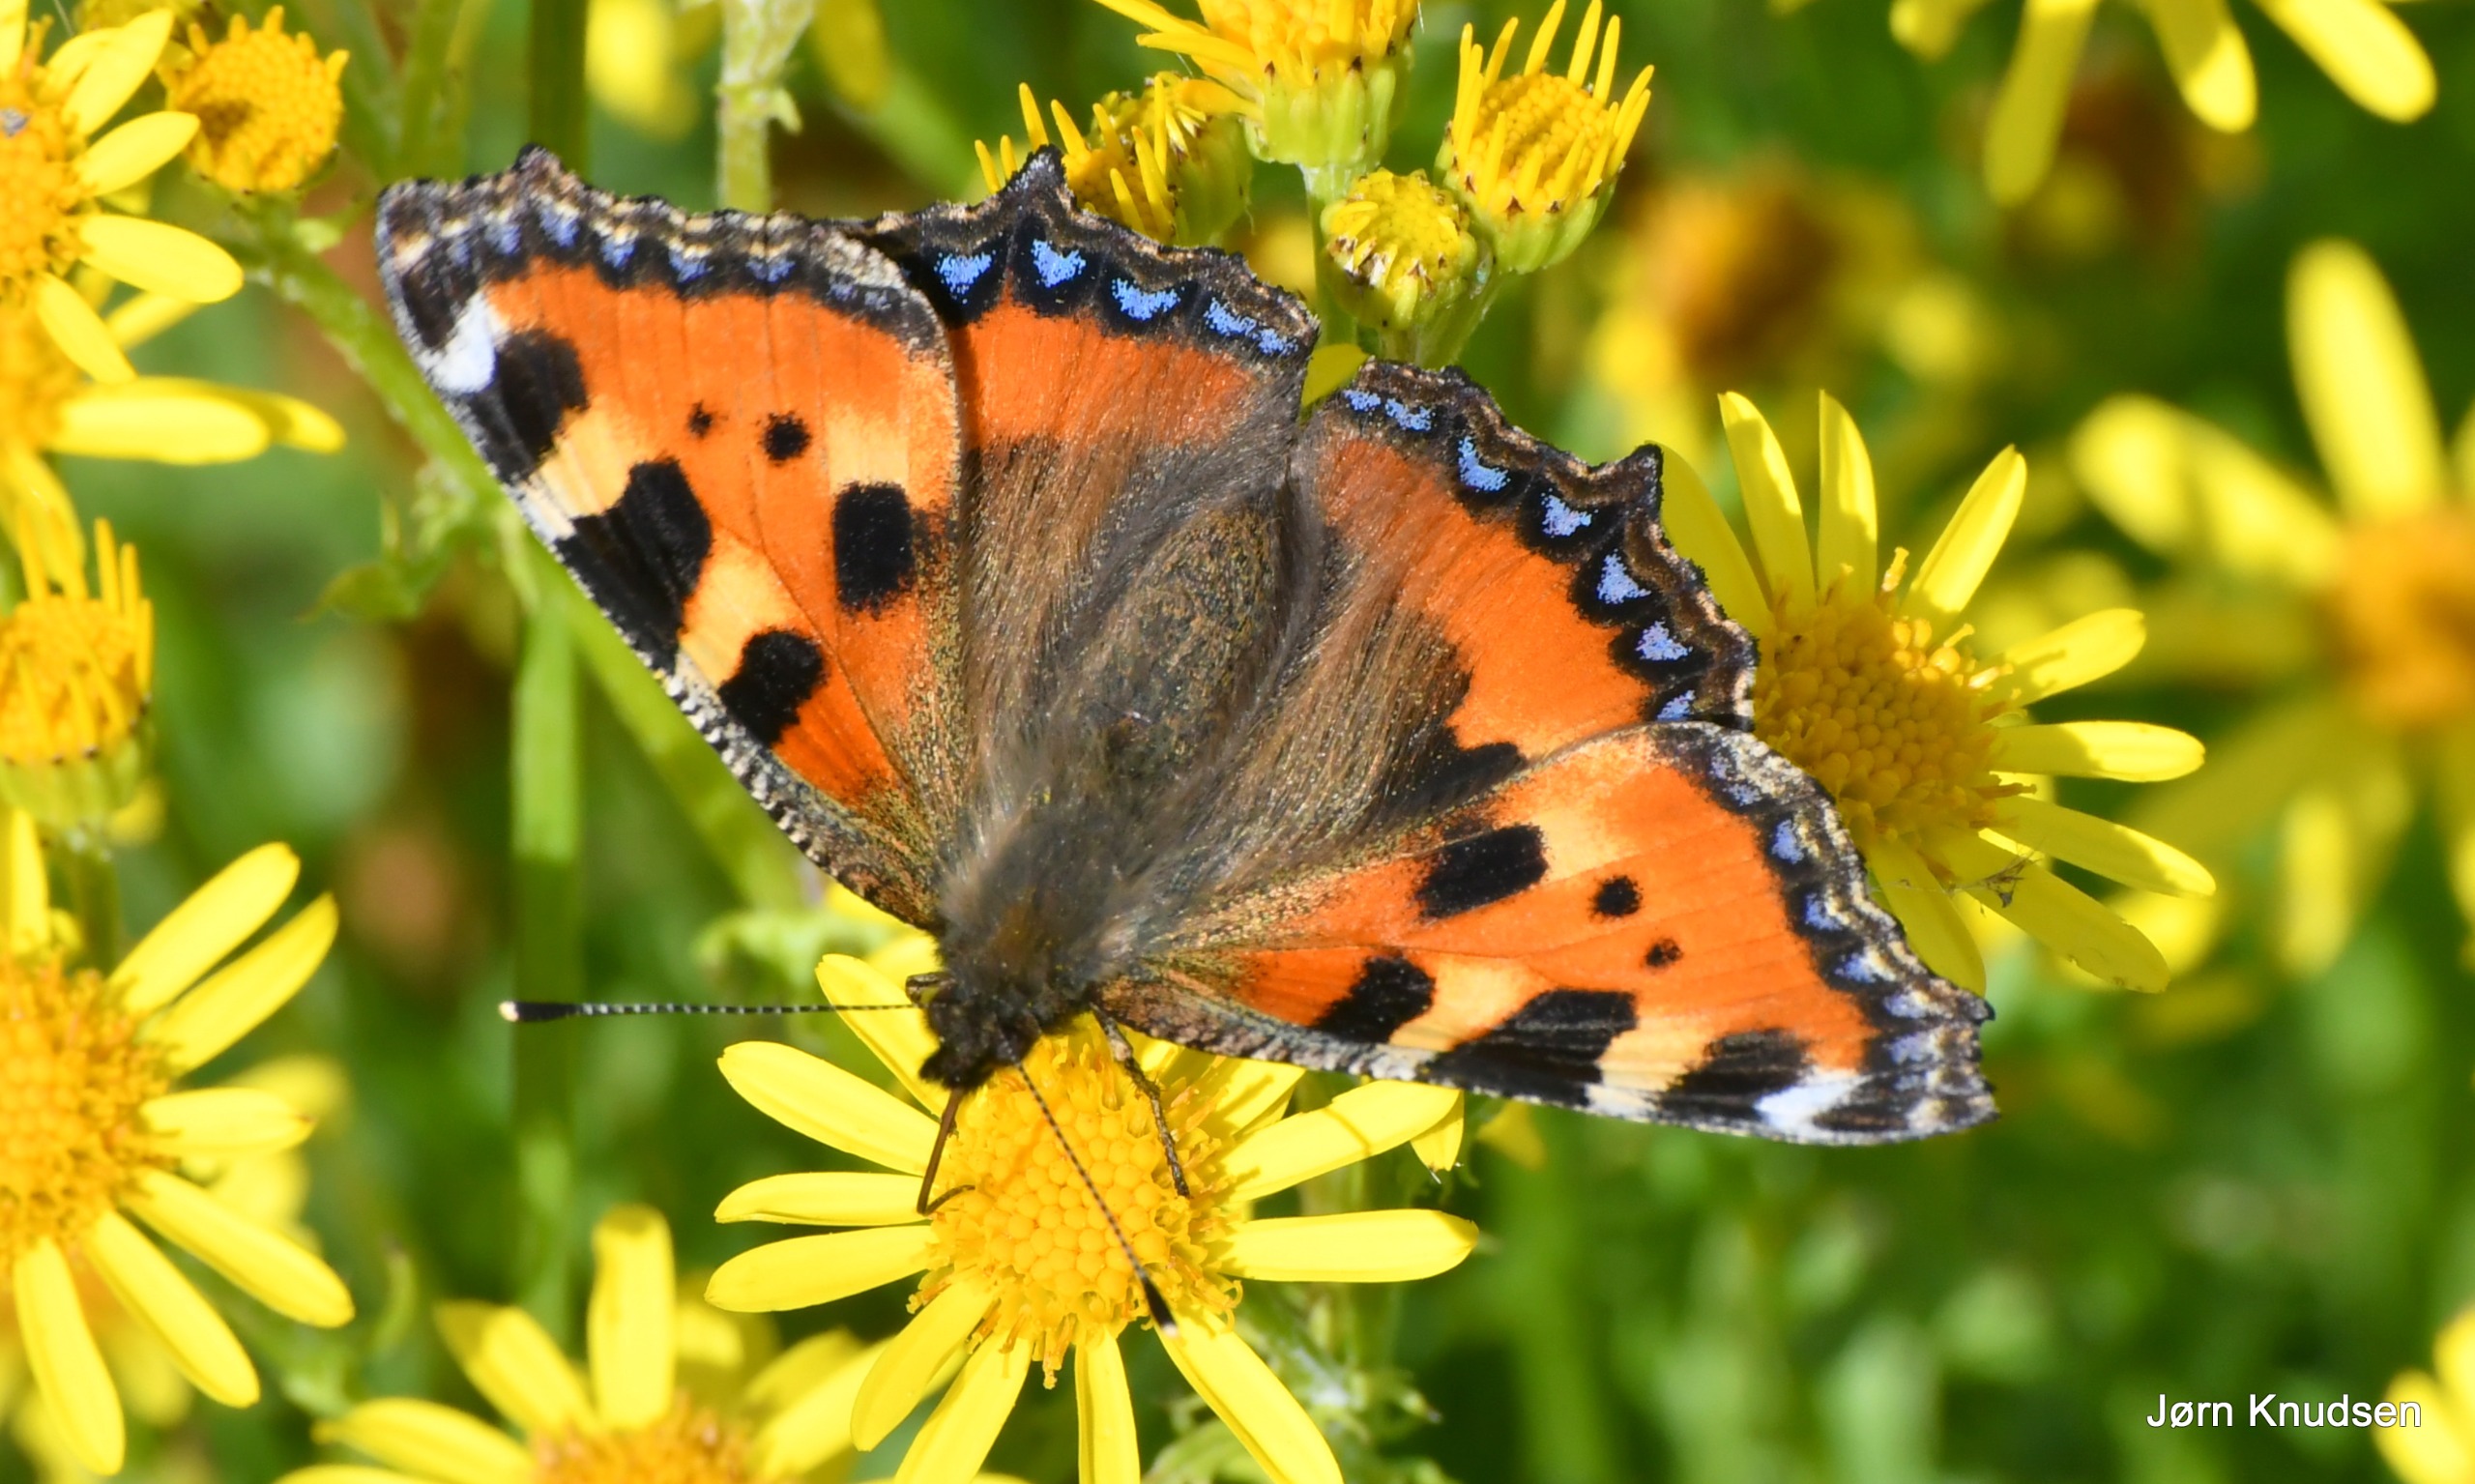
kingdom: Animalia
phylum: Arthropoda
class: Insecta
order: Lepidoptera
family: Nymphalidae
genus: Aglais
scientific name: Aglais urticae
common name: Nældens takvinge
